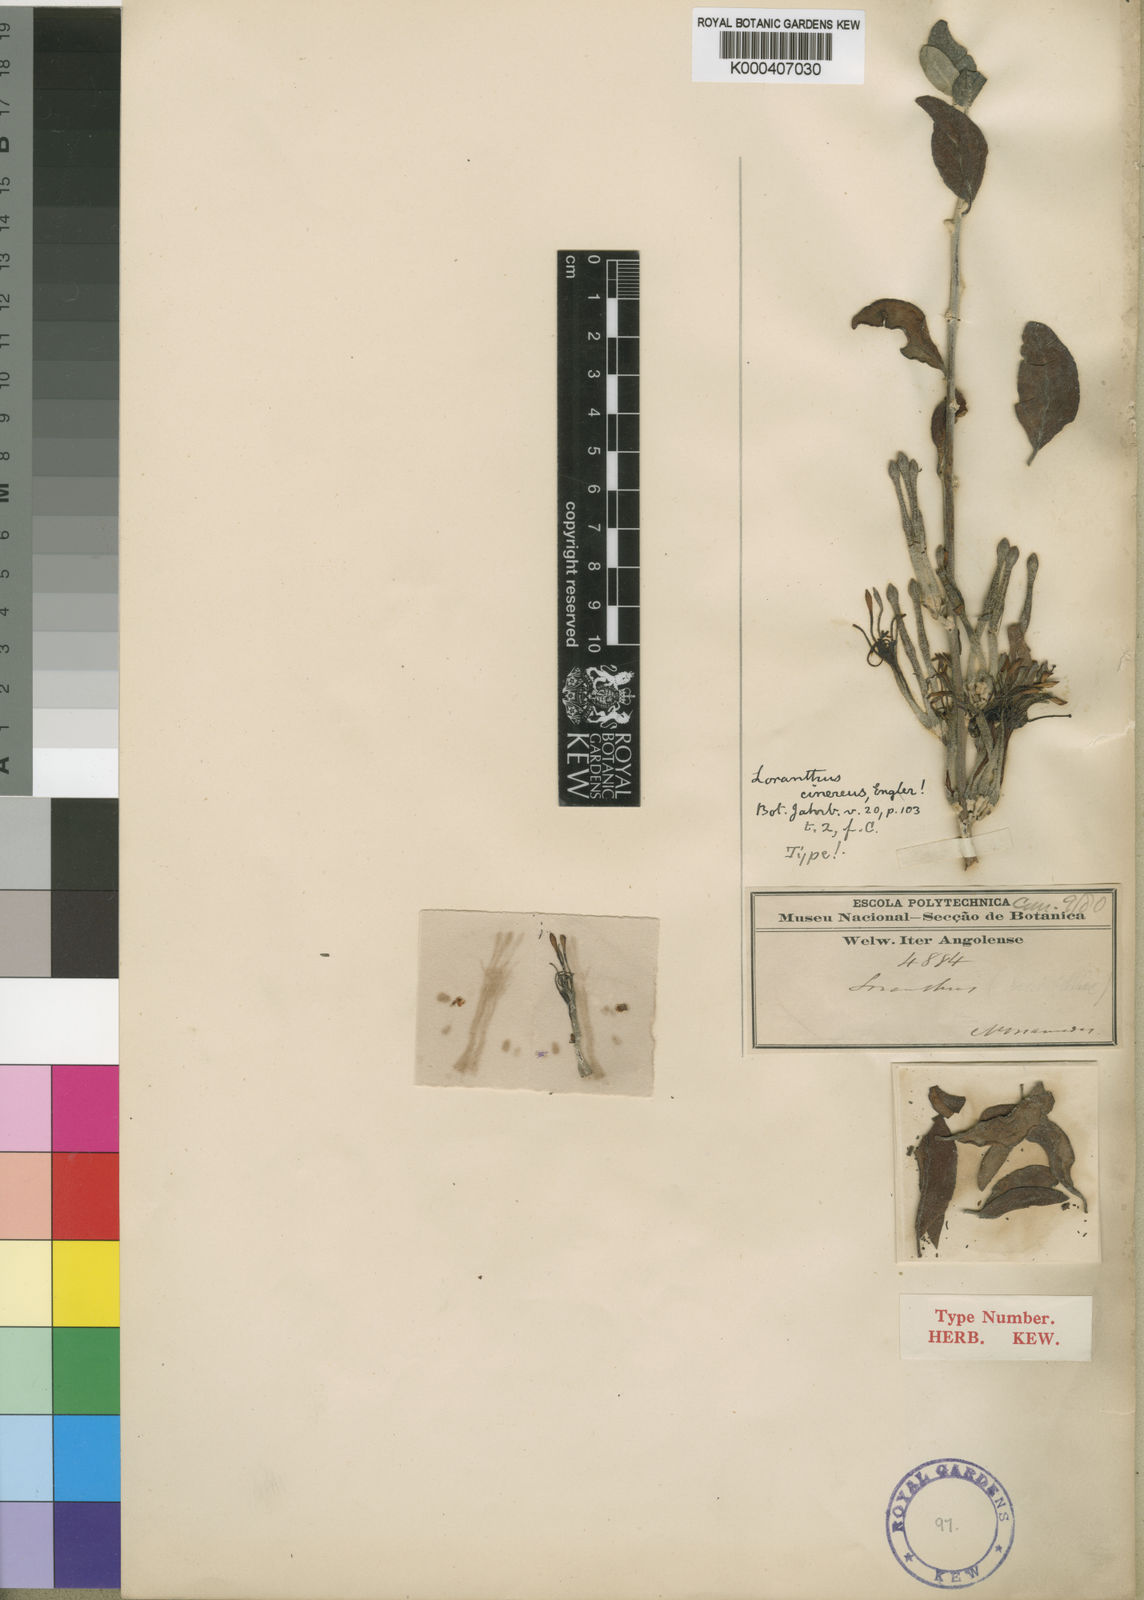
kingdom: Plantae
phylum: Tracheophyta
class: Magnoliopsida
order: Santalales
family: Loranthaceae
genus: Phragmanthera
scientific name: Phragmanthera cinerea
